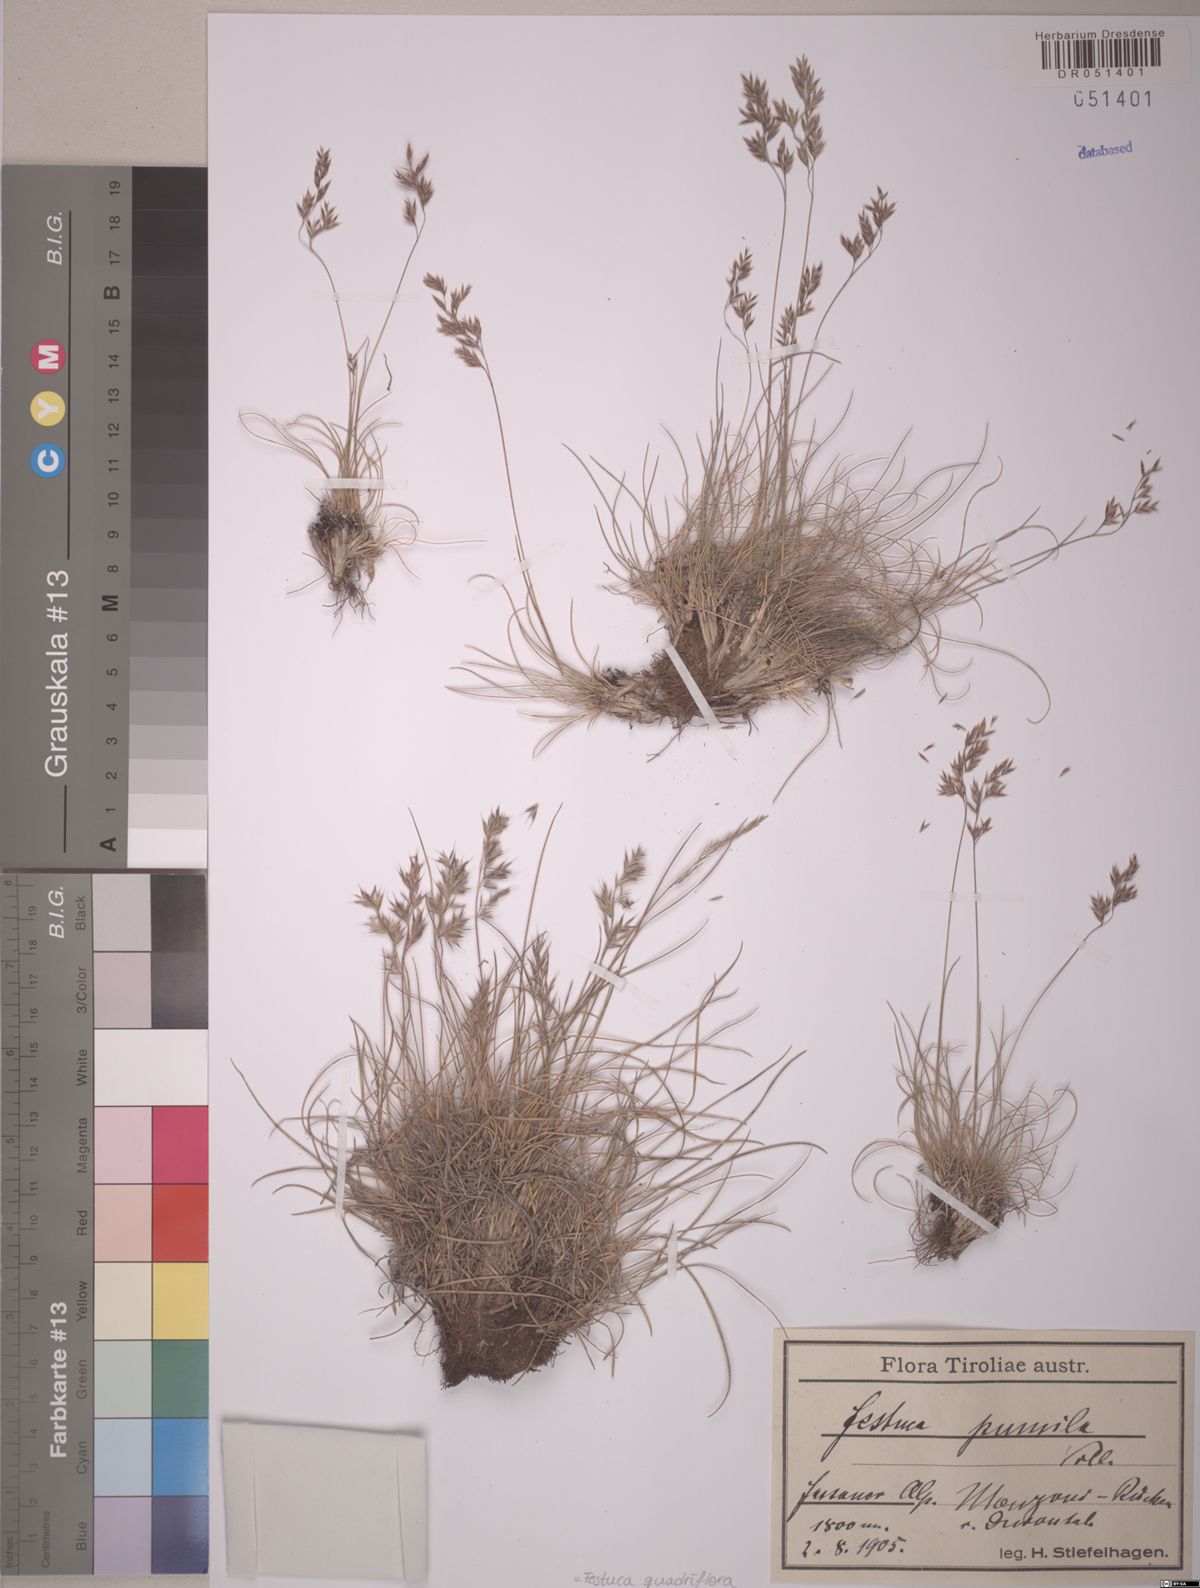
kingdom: Plantae
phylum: Tracheophyta
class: Liliopsida
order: Poales
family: Poaceae
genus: Festuca
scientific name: Festuca quadriflora
